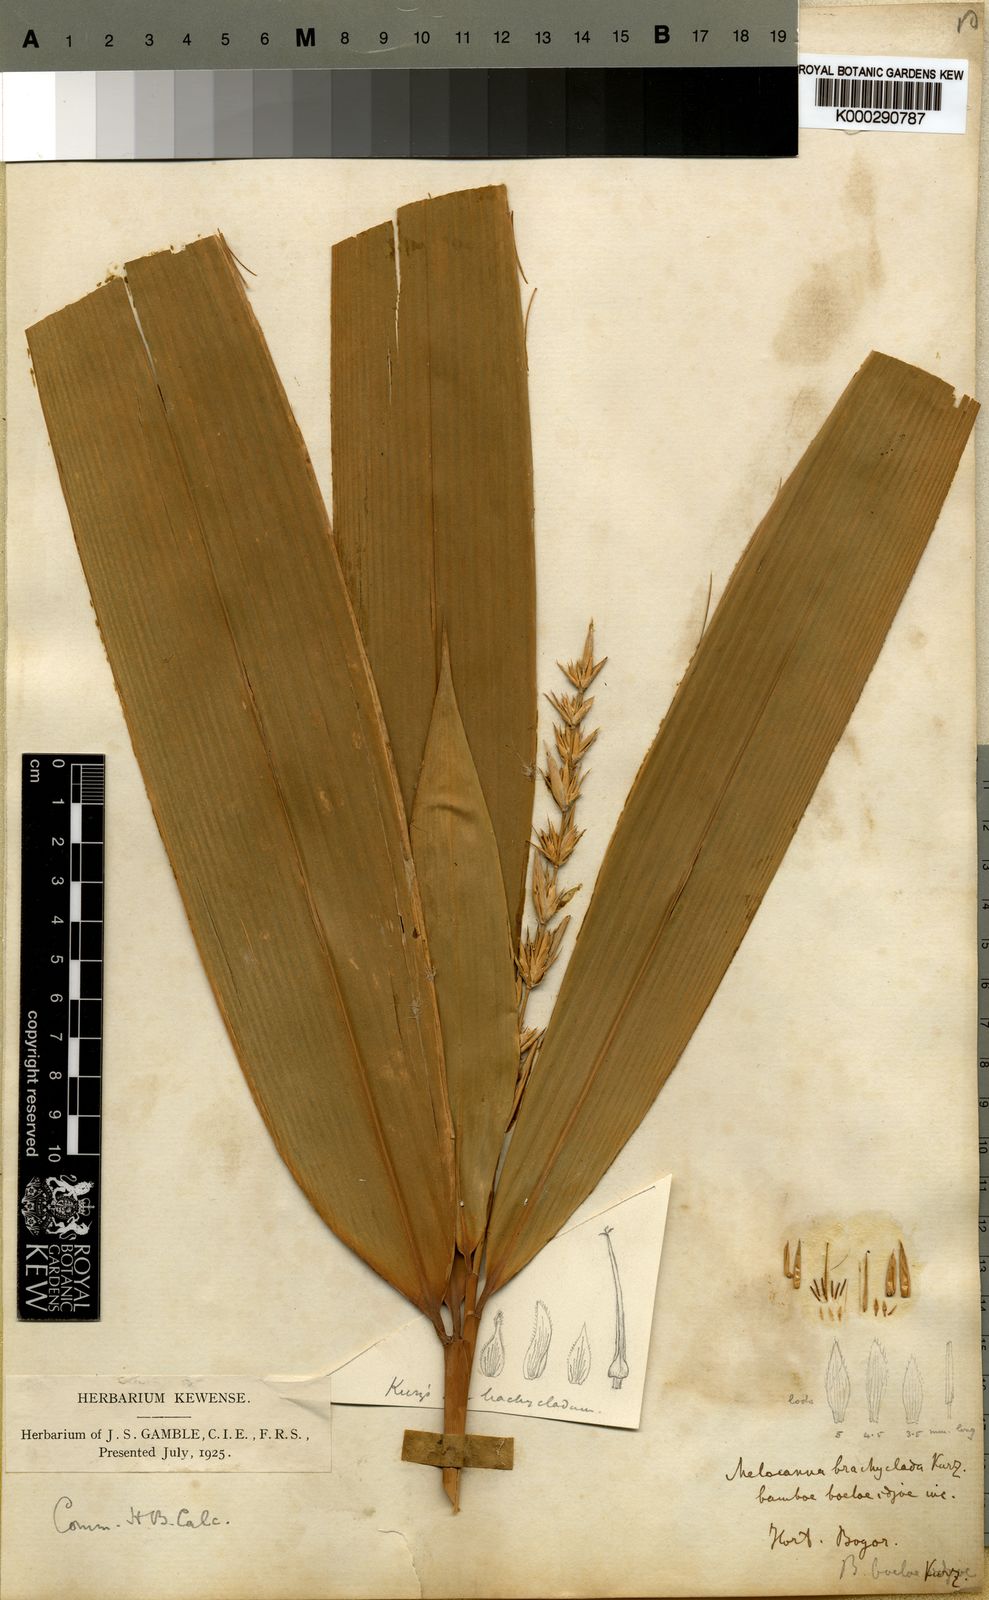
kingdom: Plantae
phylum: Tracheophyta
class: Liliopsida
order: Poales
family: Poaceae
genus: Schizostachyum
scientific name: Schizostachyum brachycladum
